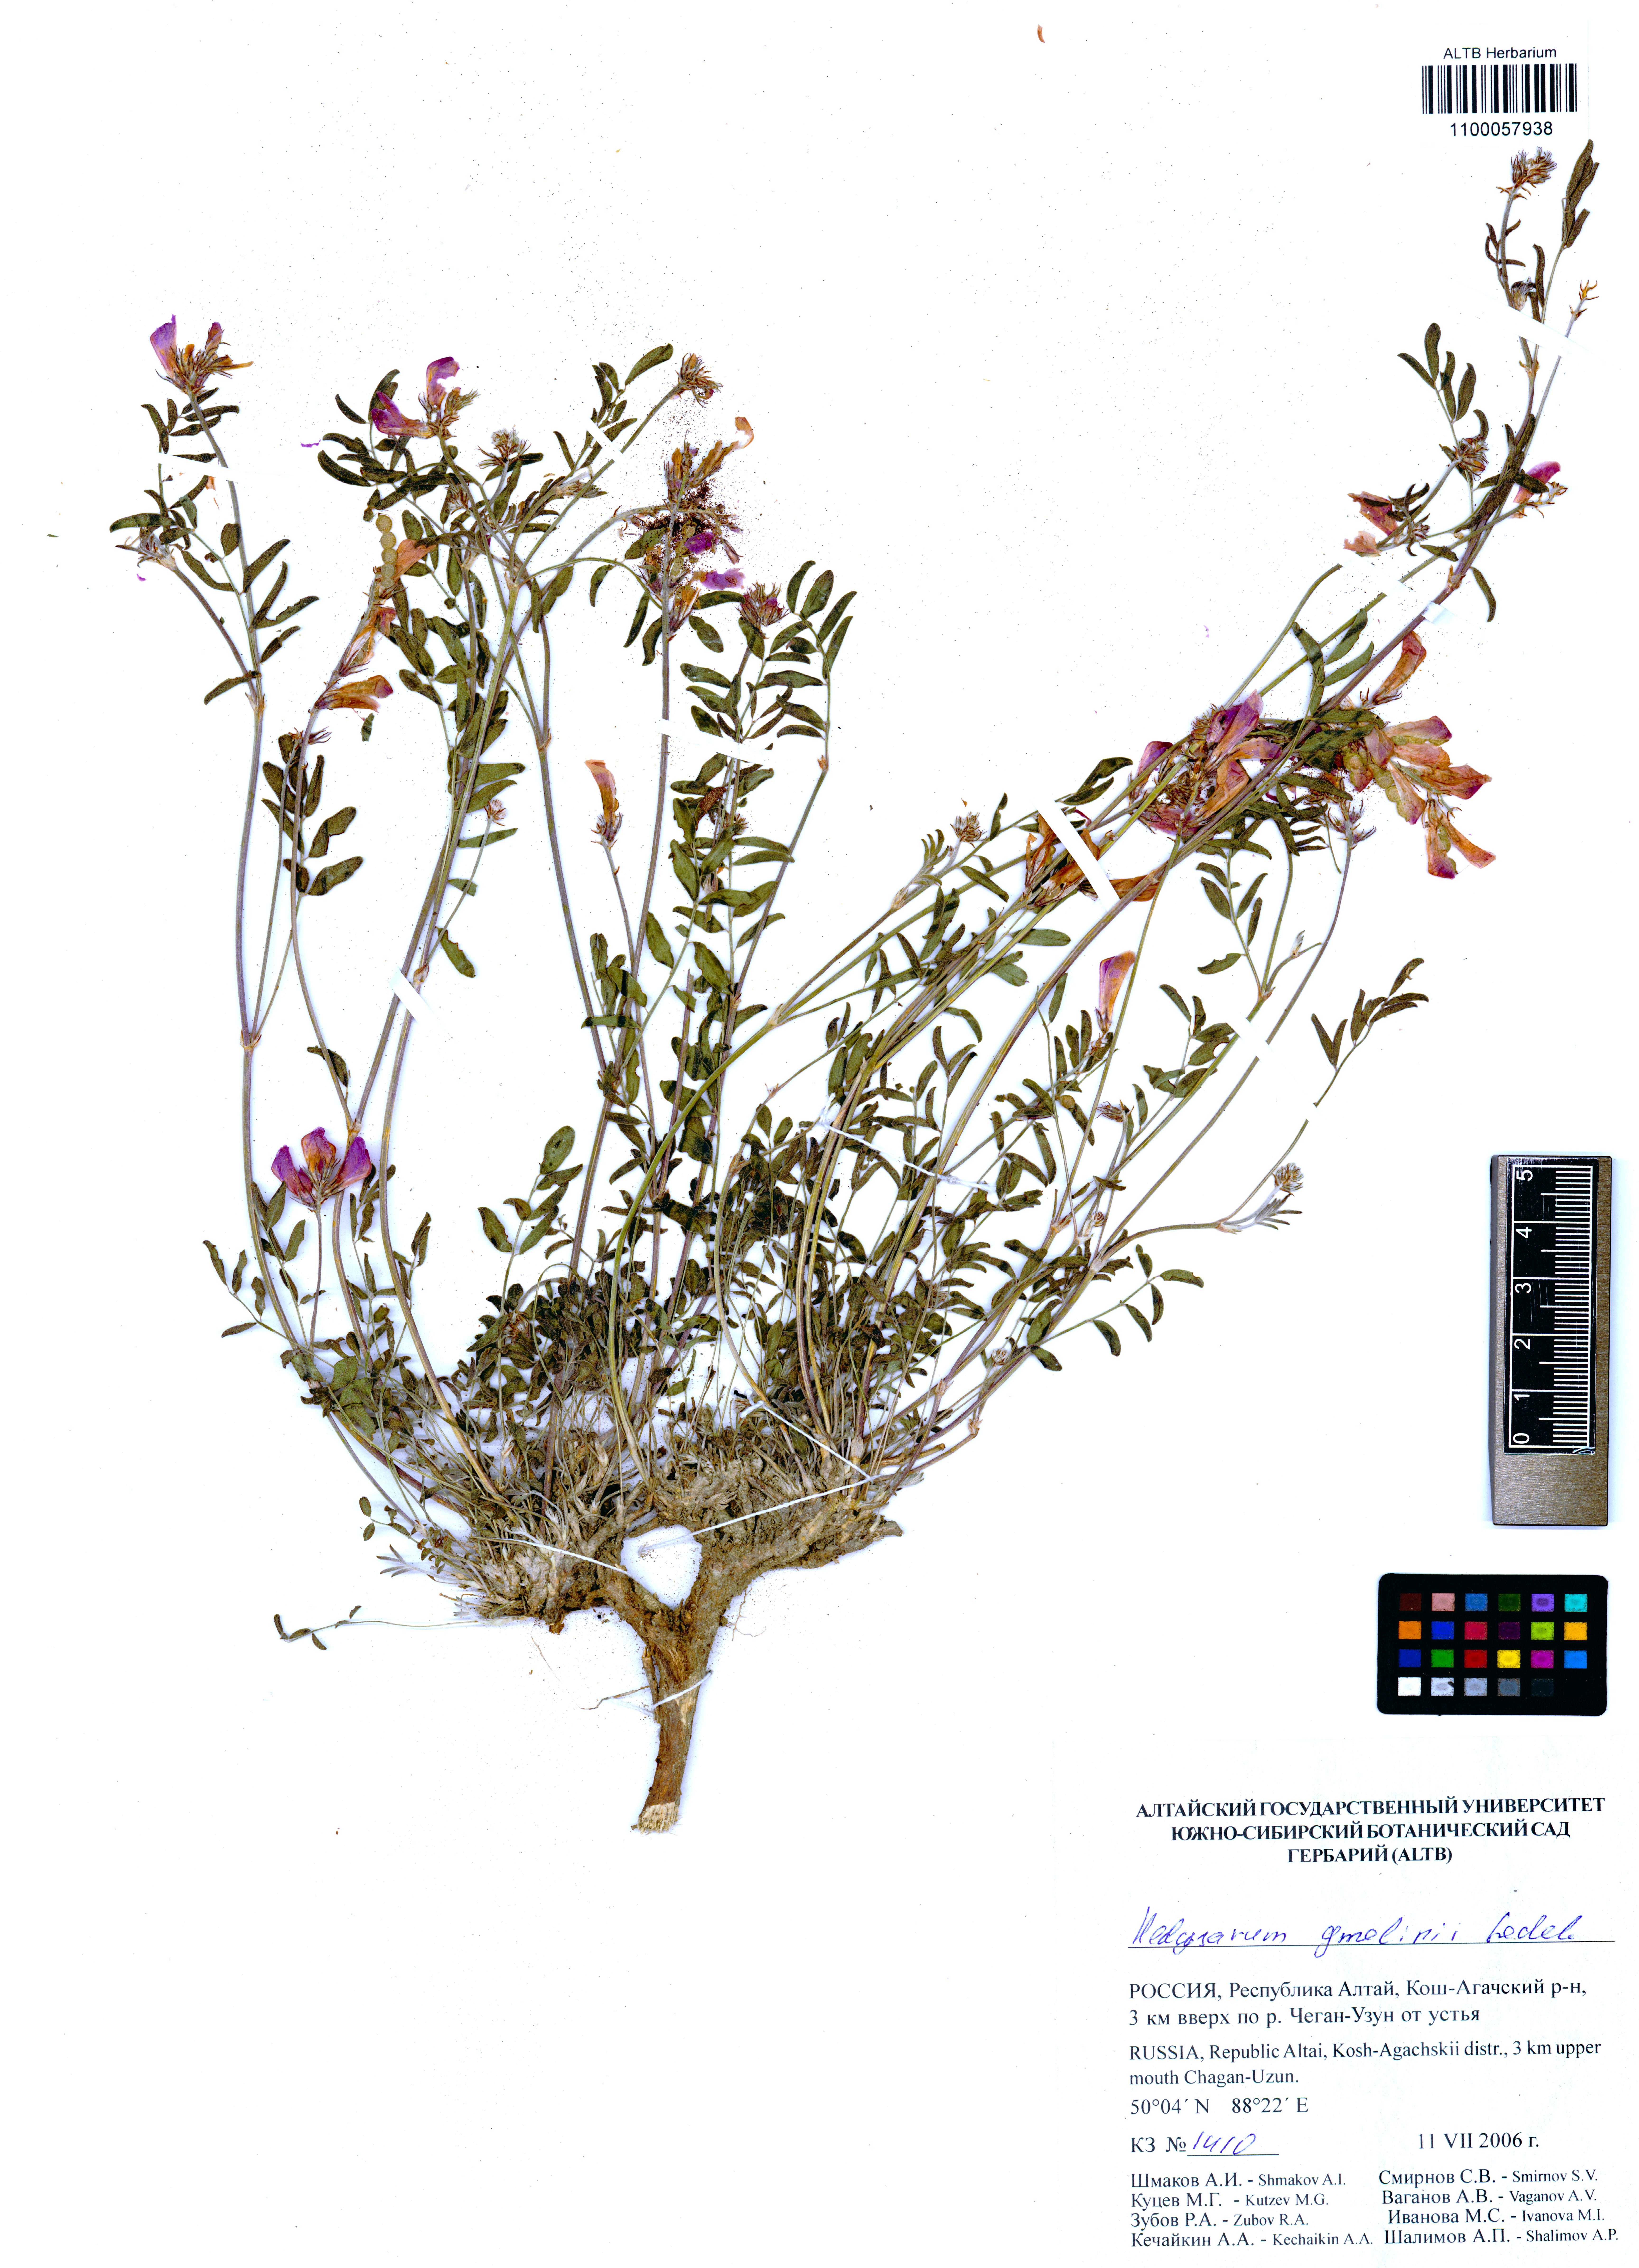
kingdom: Plantae
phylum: Tracheophyta
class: Magnoliopsida
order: Fabales
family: Fabaceae
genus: Hedysarum
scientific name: Hedysarum gmelinii
